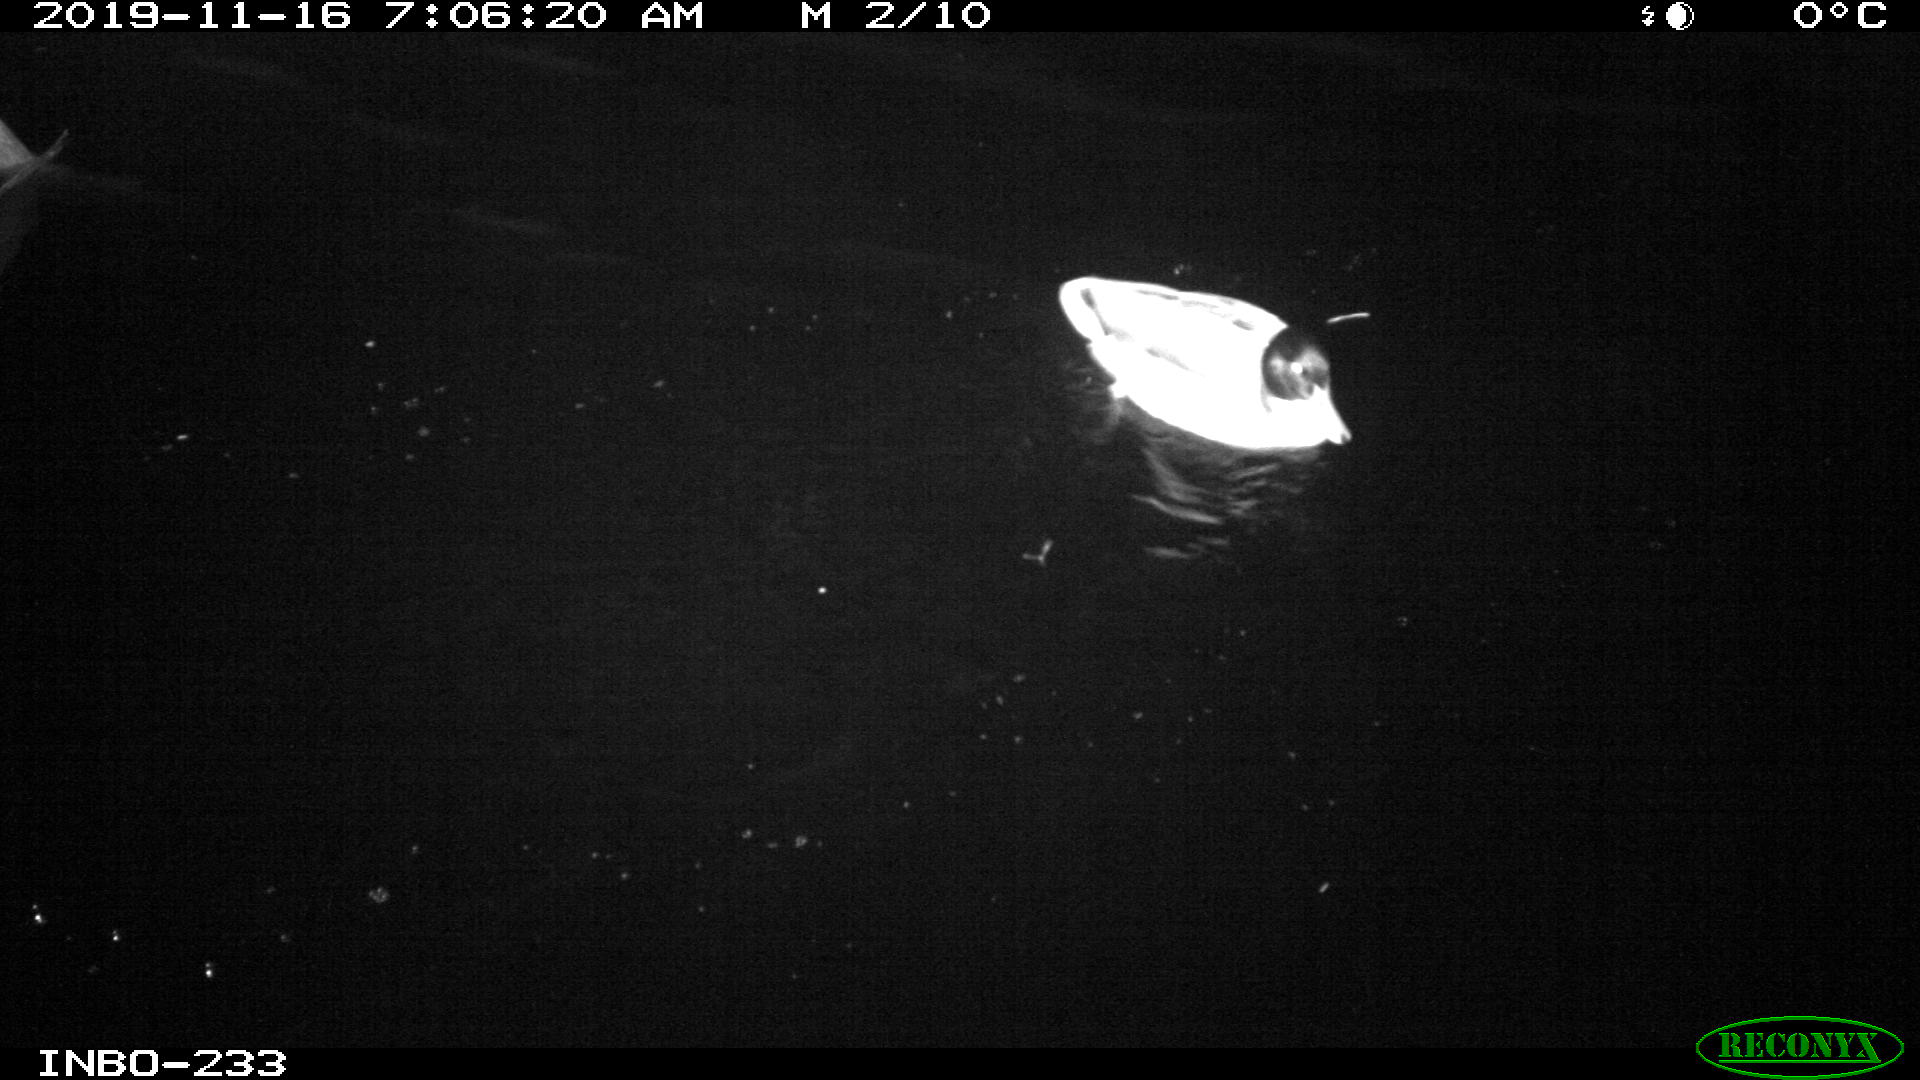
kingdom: Animalia
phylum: Chordata
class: Aves
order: Anseriformes
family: Anatidae
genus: Anas
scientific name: Anas platyrhynchos
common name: Mallard
